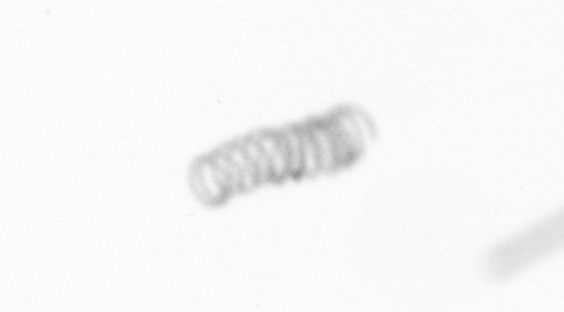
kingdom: Chromista
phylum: Ochrophyta
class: Bacillariophyceae
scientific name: Bacillariophyceae
